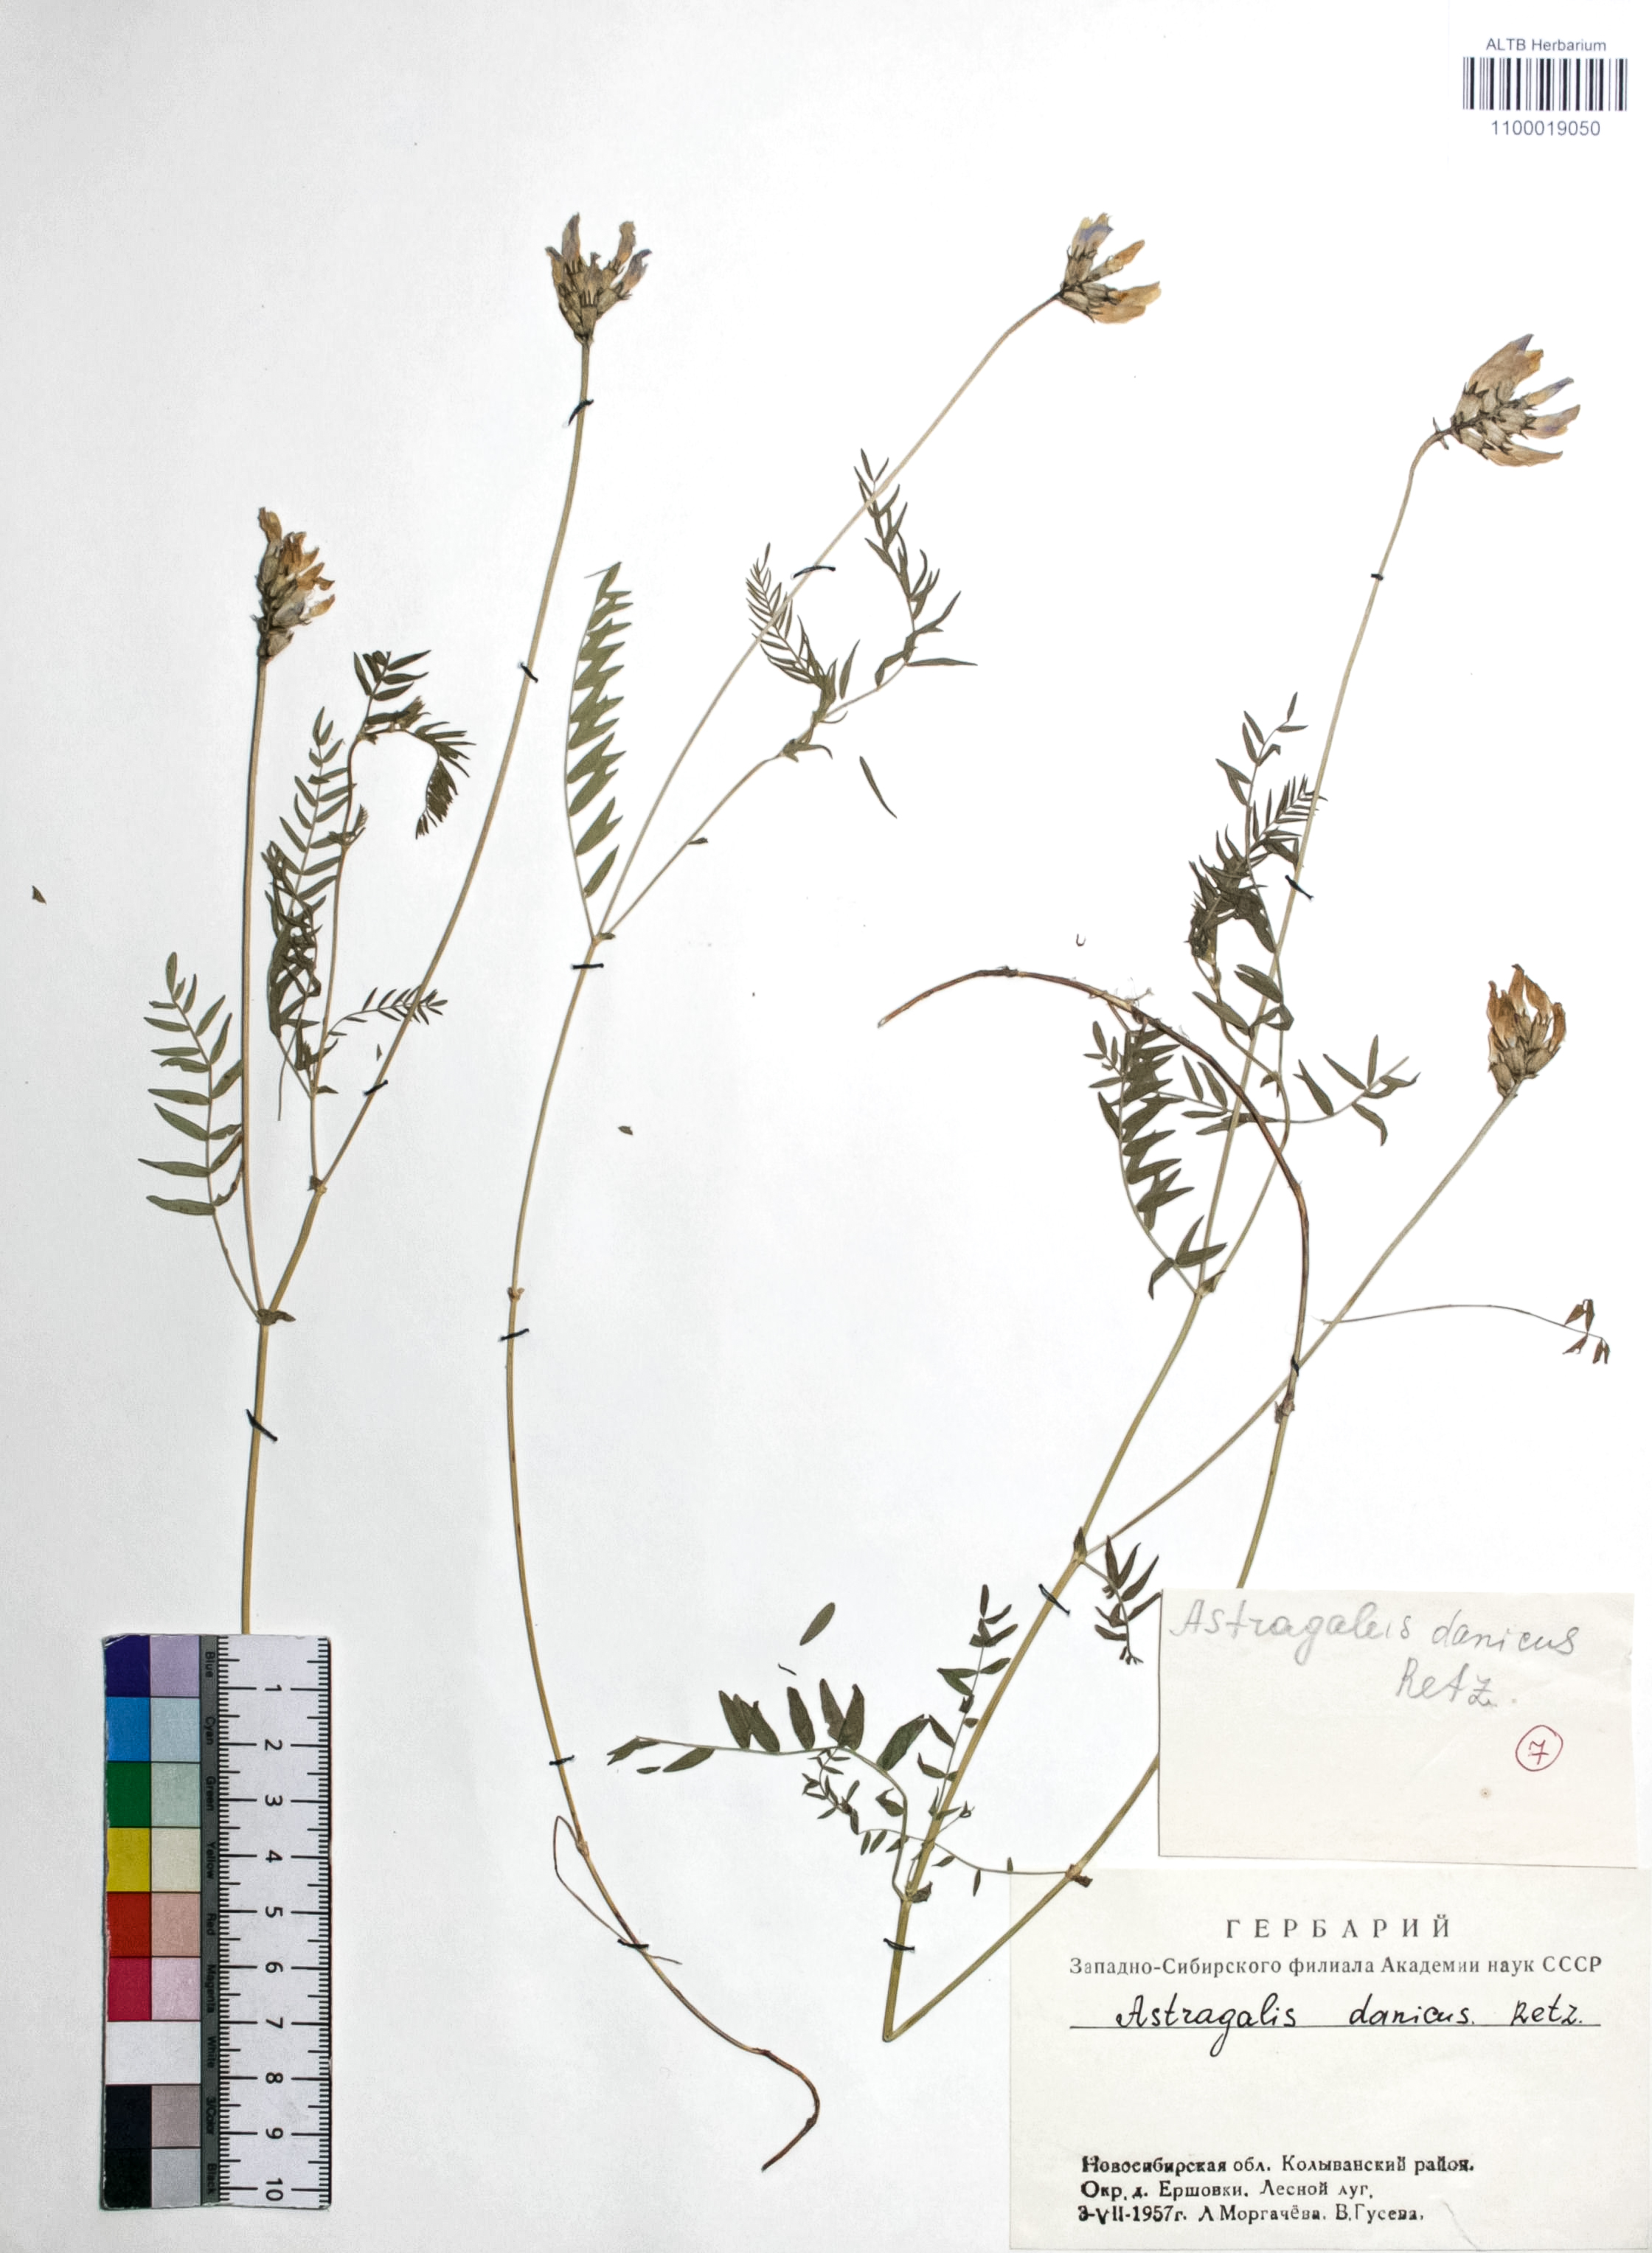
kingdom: Plantae
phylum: Tracheophyta
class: Magnoliopsida
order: Fabales
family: Fabaceae
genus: Astragalus
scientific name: Astragalus danicus
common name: Purple milk-vetch
